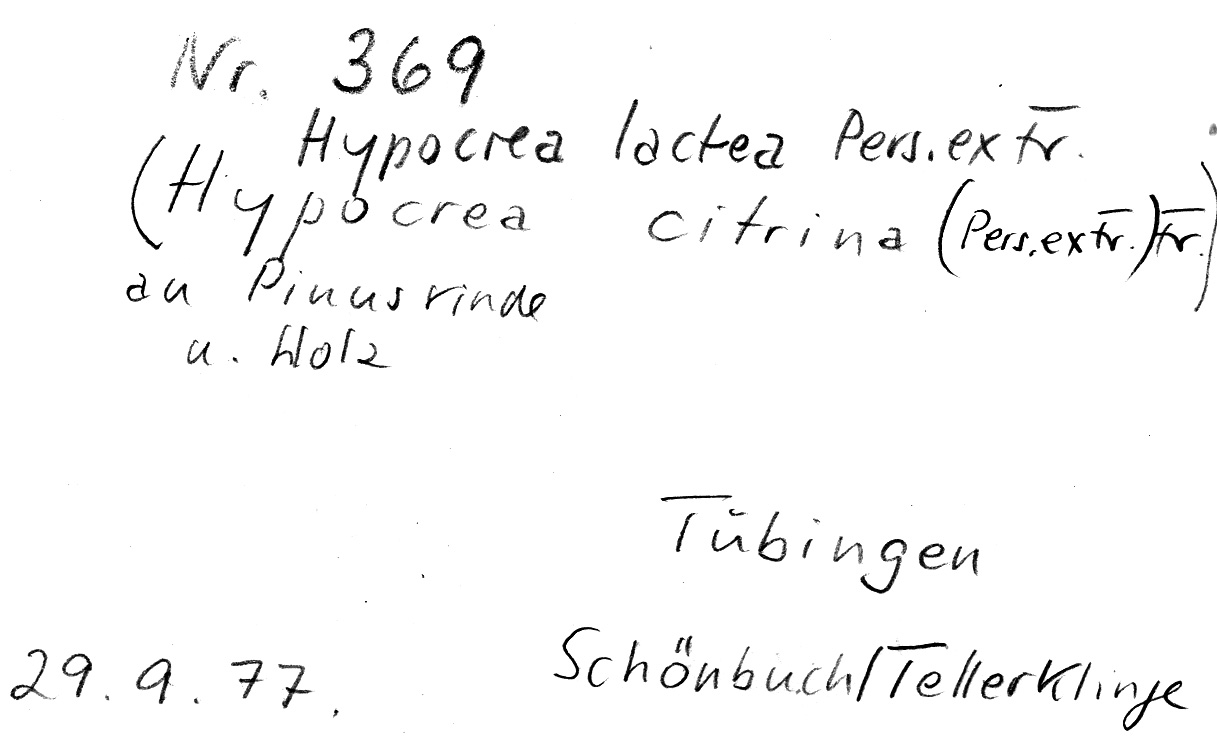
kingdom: Fungi
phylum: Ascomycota
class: Sordariomycetes
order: Hypocreales
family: Hypocreaceae
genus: Hypocrea
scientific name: Hypocrea lactea
